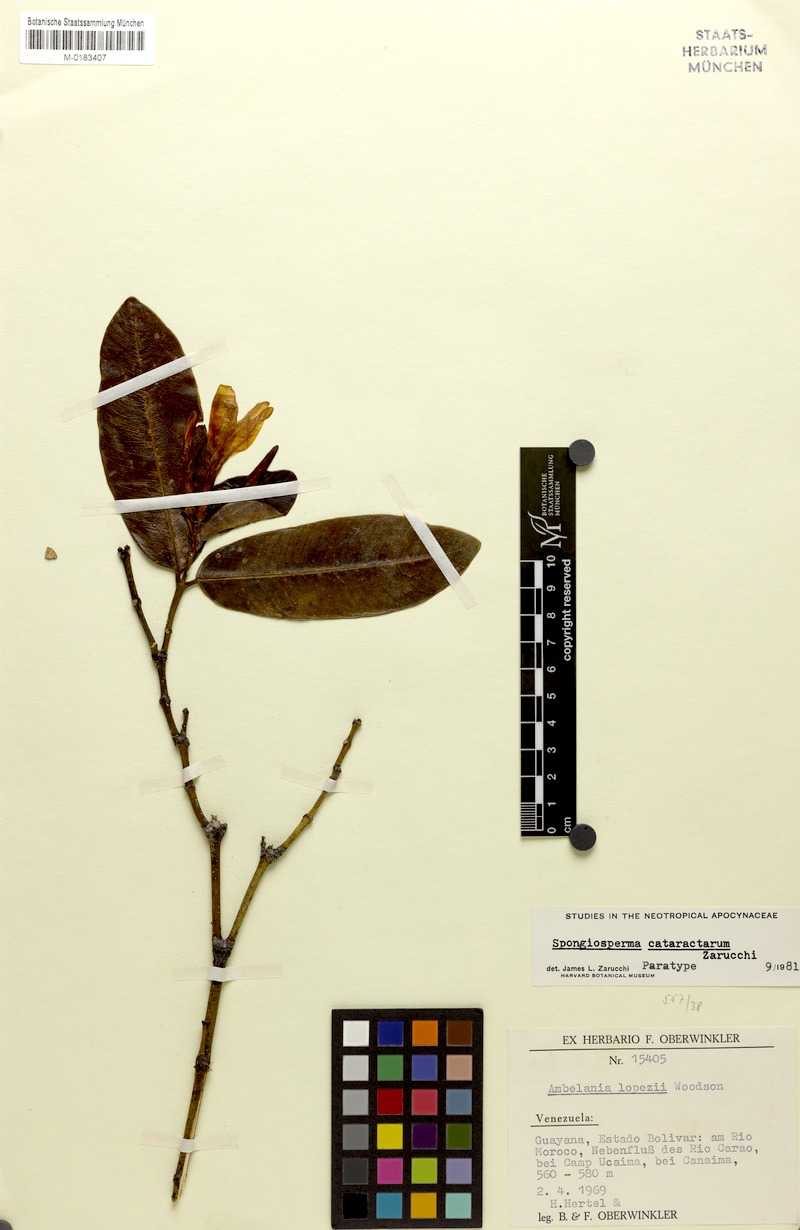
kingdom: Plantae
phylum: Tracheophyta
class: Magnoliopsida
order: Gentianales
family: Apocynaceae
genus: Spongiosperma
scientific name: Spongiosperma cataractarum
